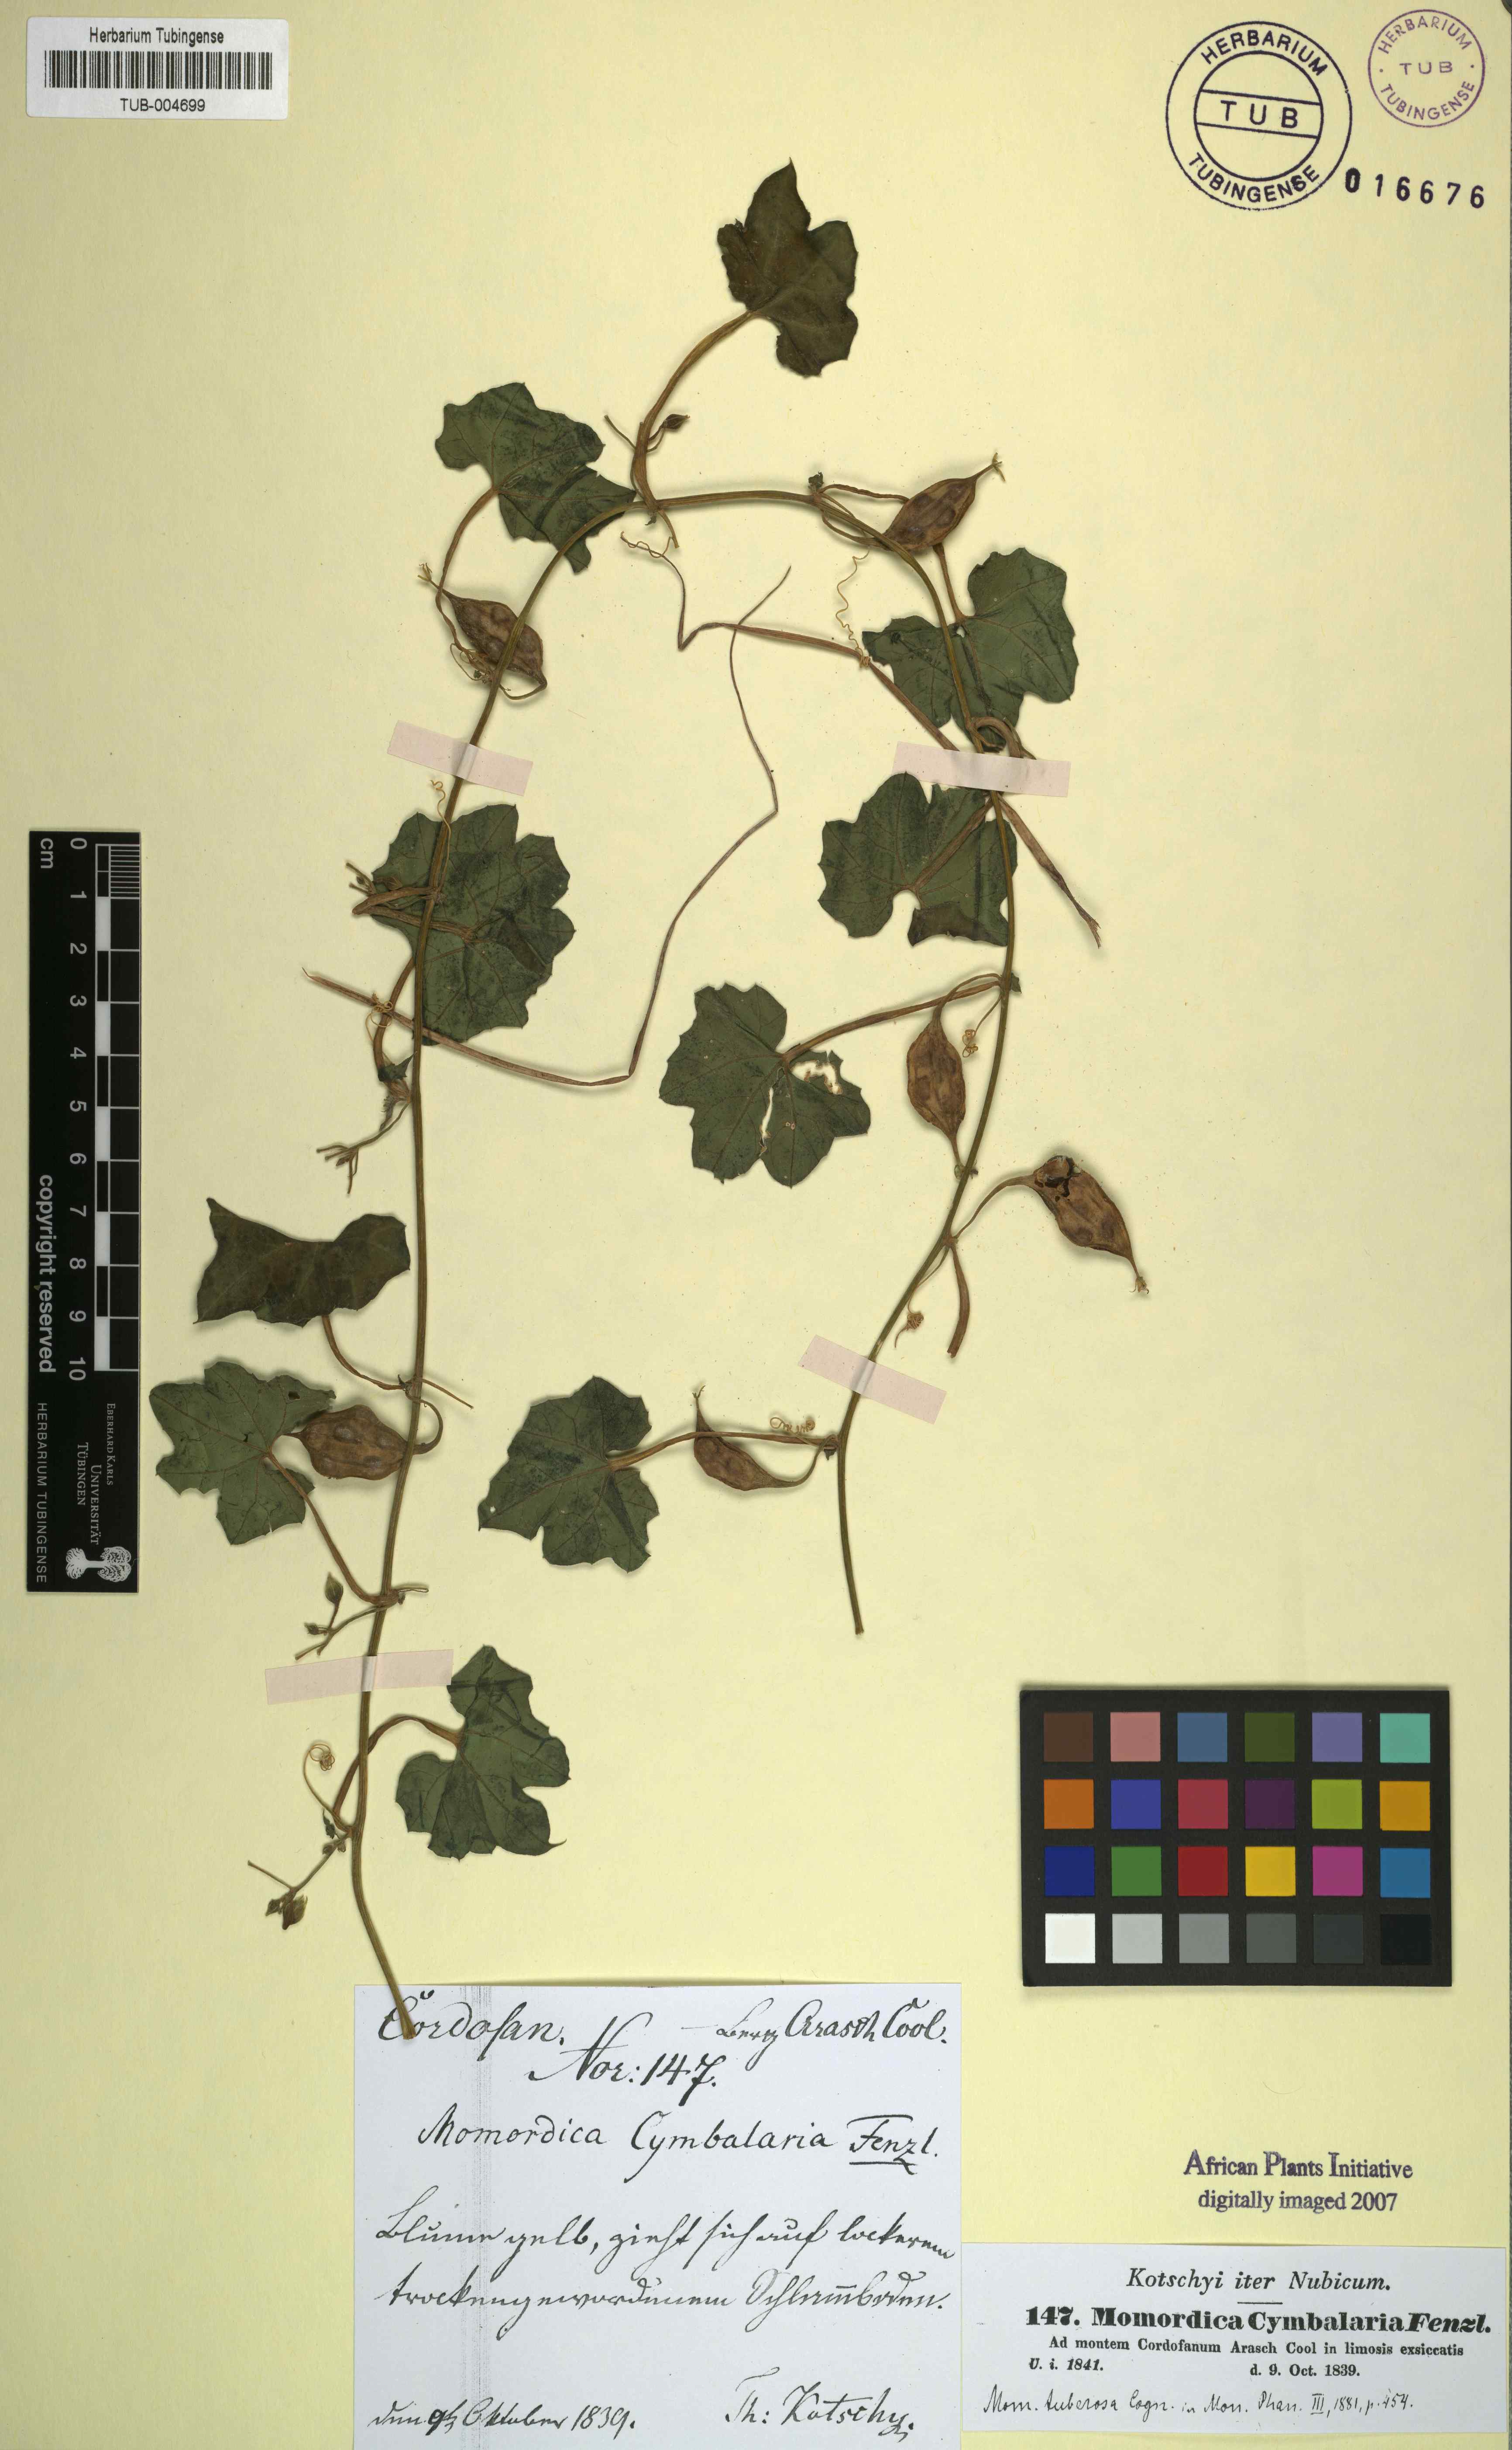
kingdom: Plantae
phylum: Tracheophyta
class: Magnoliopsida
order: Cucurbitales
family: Cucurbitaceae
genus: Momordica
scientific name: Momordica cymbalaria
